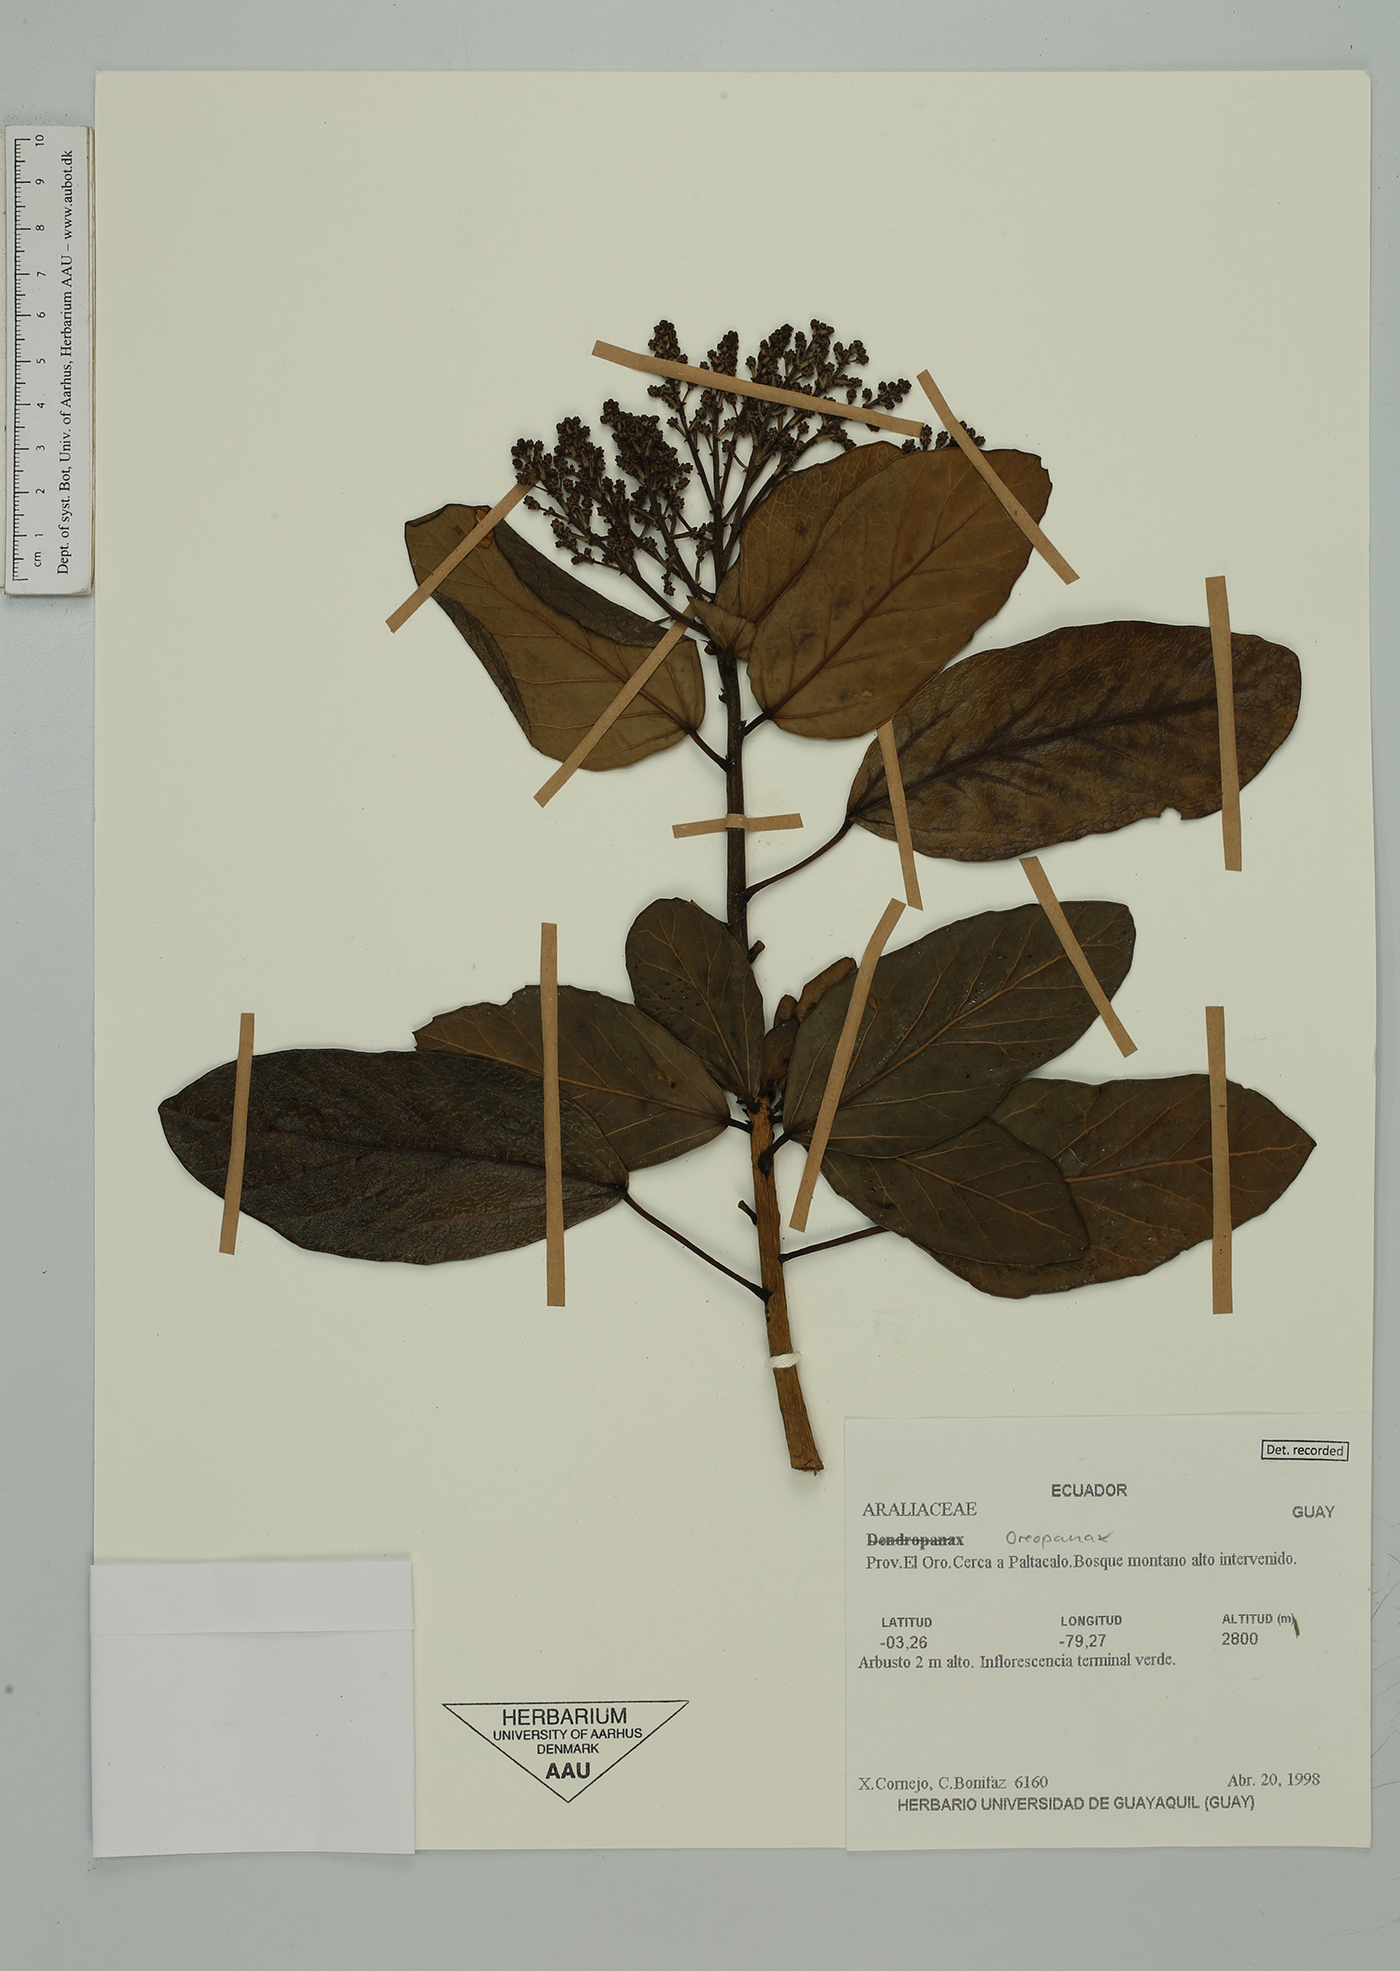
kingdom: Plantae
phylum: Tracheophyta
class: Magnoliopsida
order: Apiales
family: Araliaceae
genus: Oreopanax
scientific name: Oreopanax
